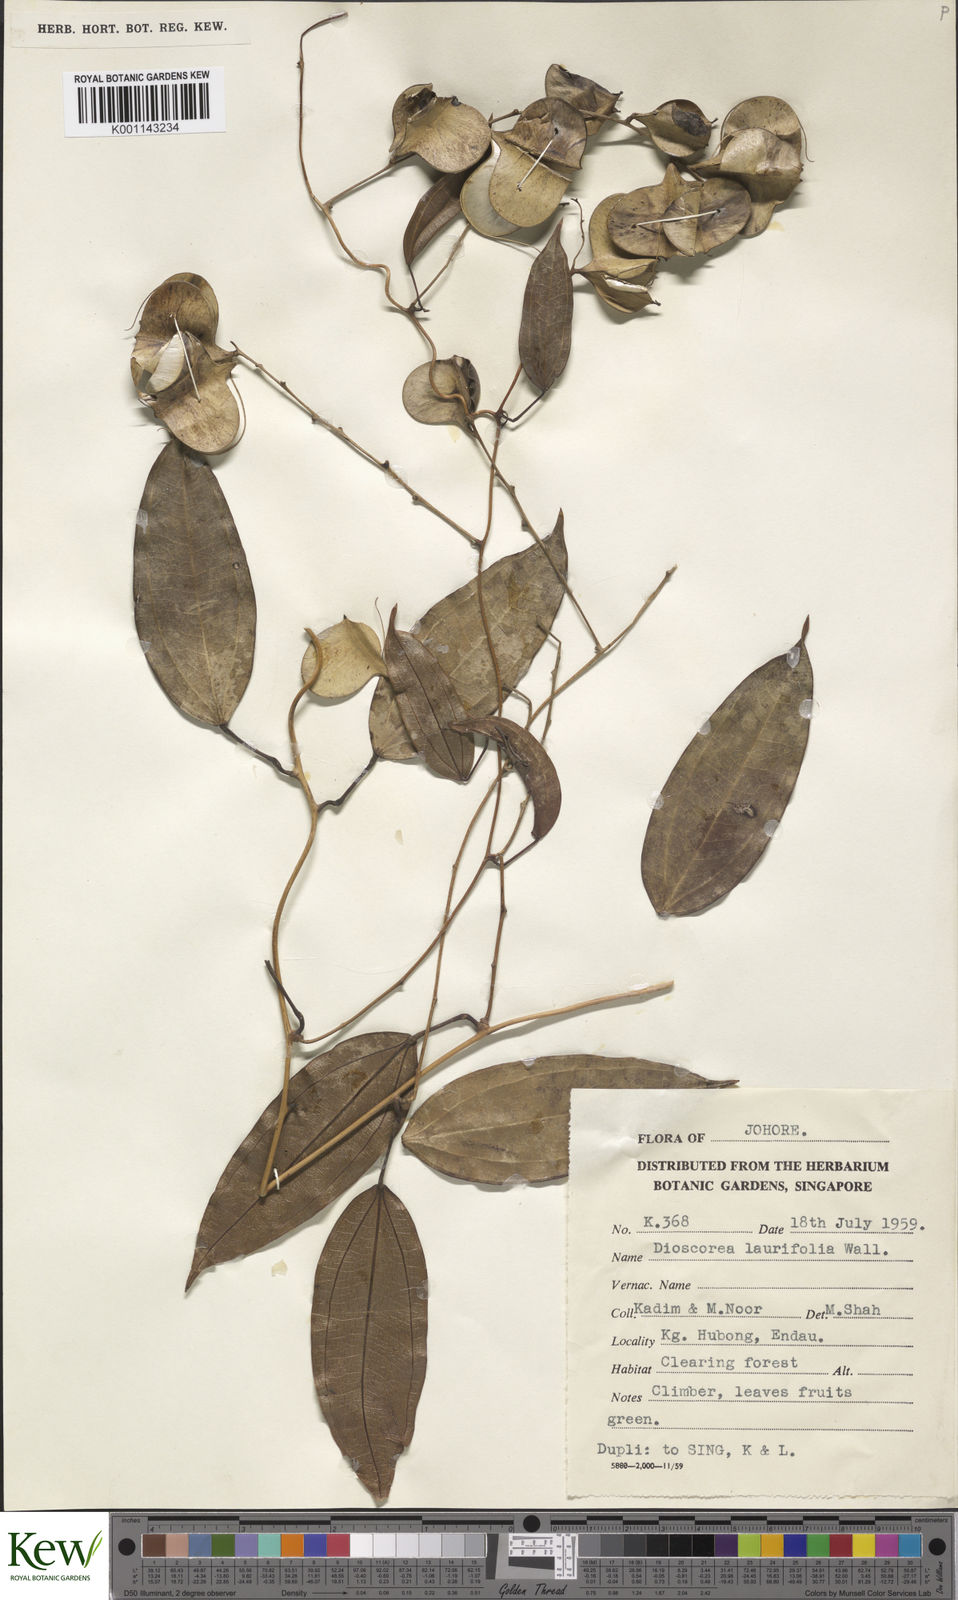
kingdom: Plantae
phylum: Tracheophyta
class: Liliopsida
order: Dioscoreales
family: Dioscoreaceae
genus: Dioscorea
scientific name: Dioscorea laurifolia
